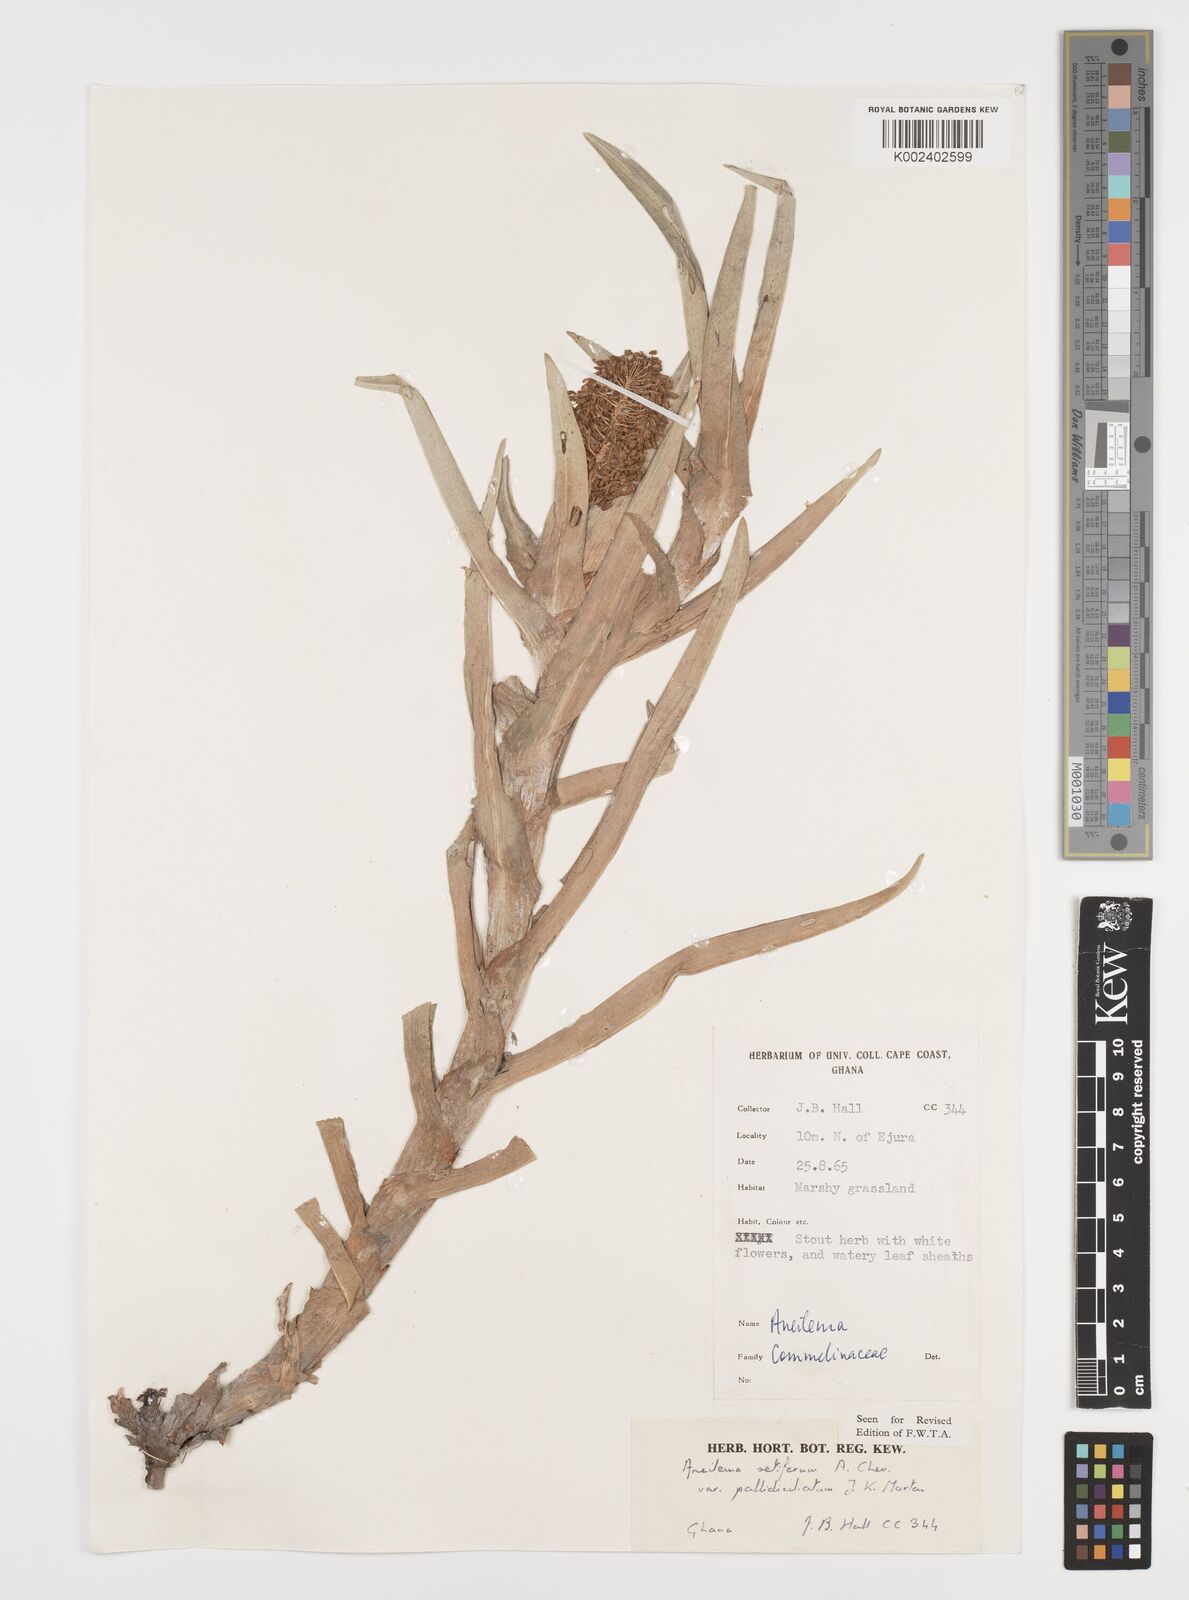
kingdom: Plantae
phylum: Tracheophyta
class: Liliopsida
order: Commelinales
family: Commelinaceae
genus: Aneilema
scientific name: Aneilema setiferum
